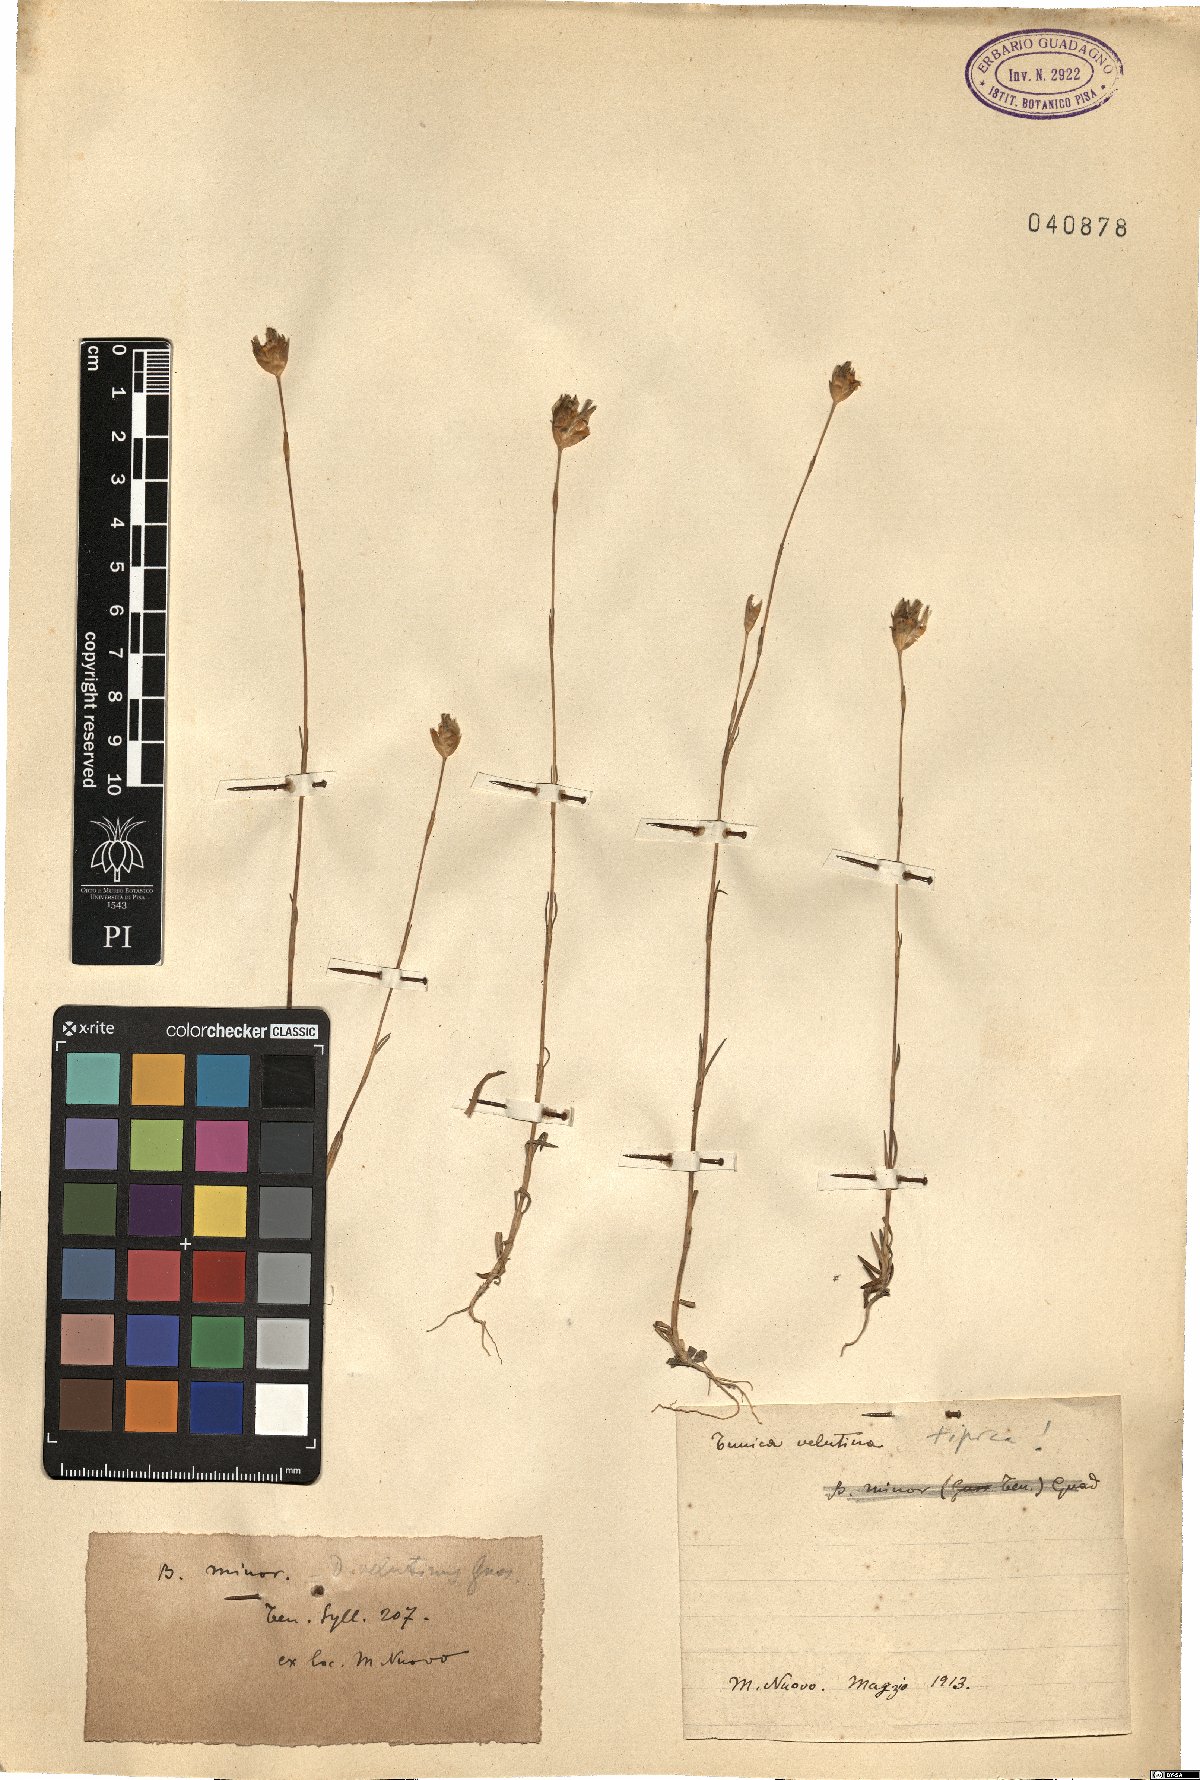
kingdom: Plantae
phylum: Tracheophyta
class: Magnoliopsida
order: Caryophyllales
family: Caryophyllaceae
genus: Petrorhagia
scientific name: Petrorhagia dubia
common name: Hairypink
